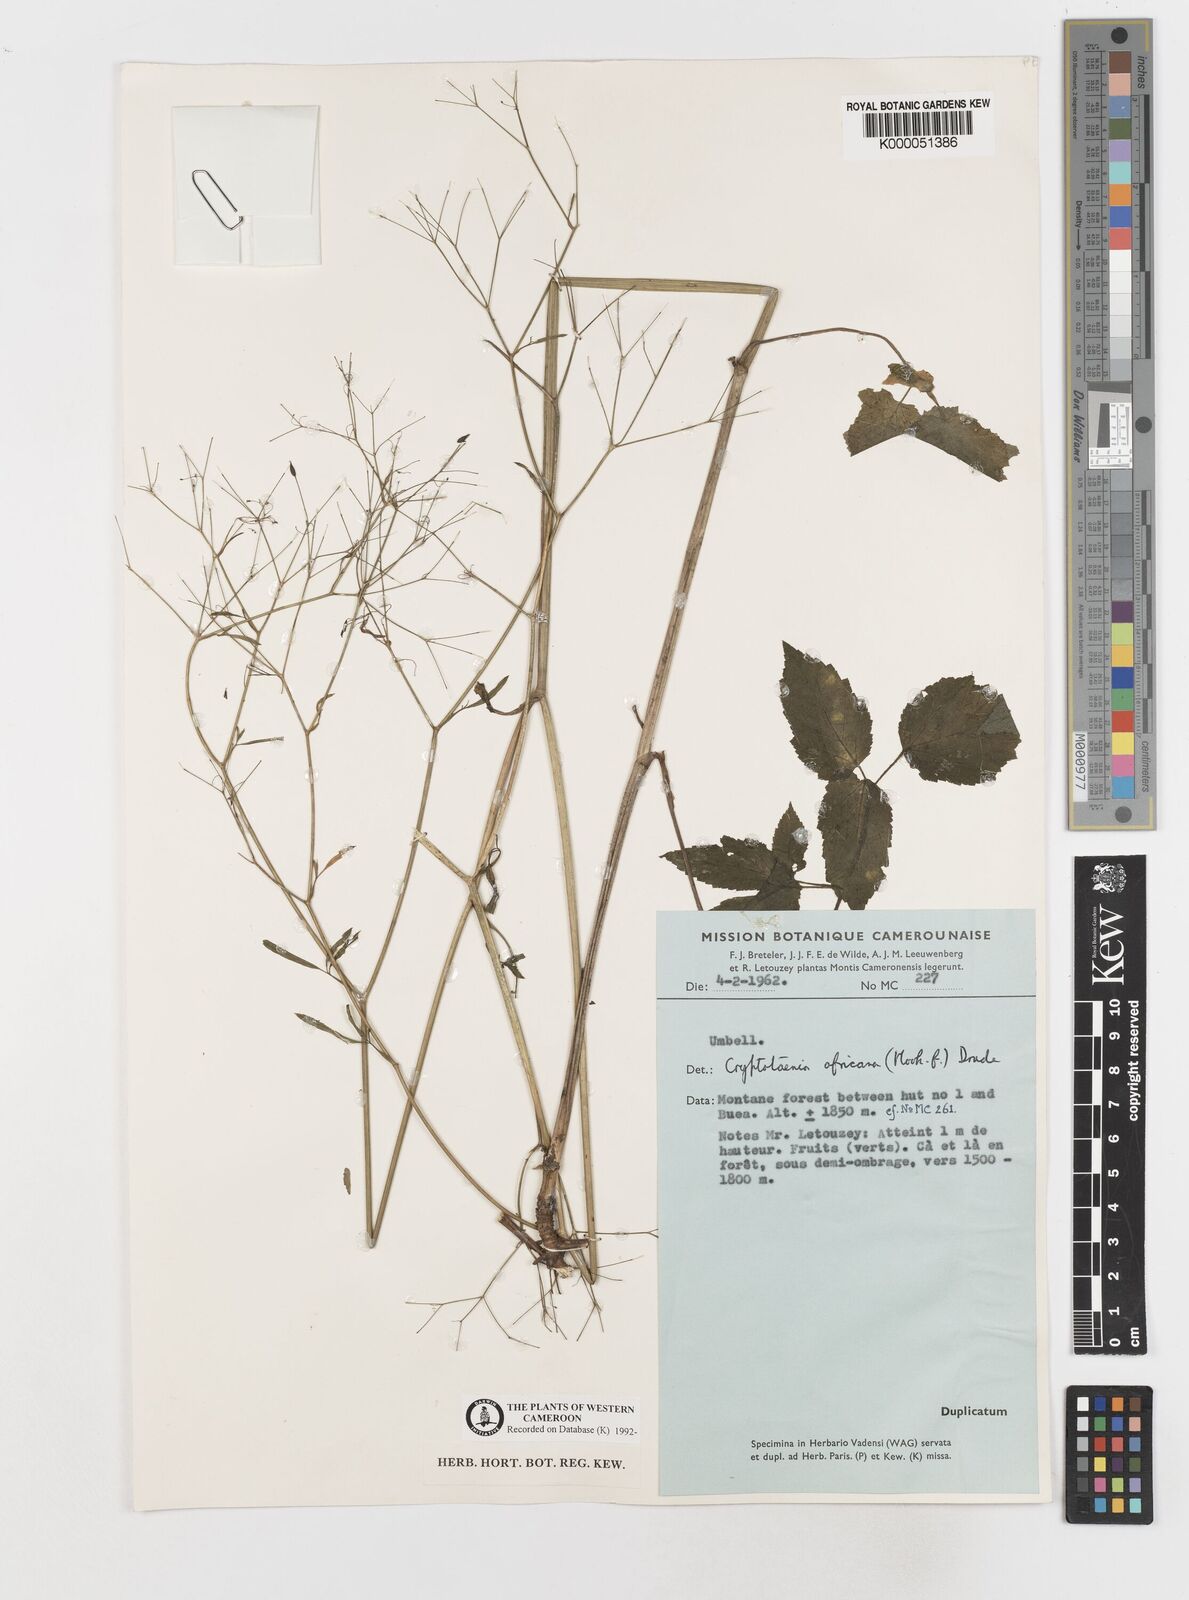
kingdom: Plantae
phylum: Tracheophyta
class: Magnoliopsida
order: Apiales
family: Apiaceae
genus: Cryptotaenia
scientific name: Cryptotaenia africana
